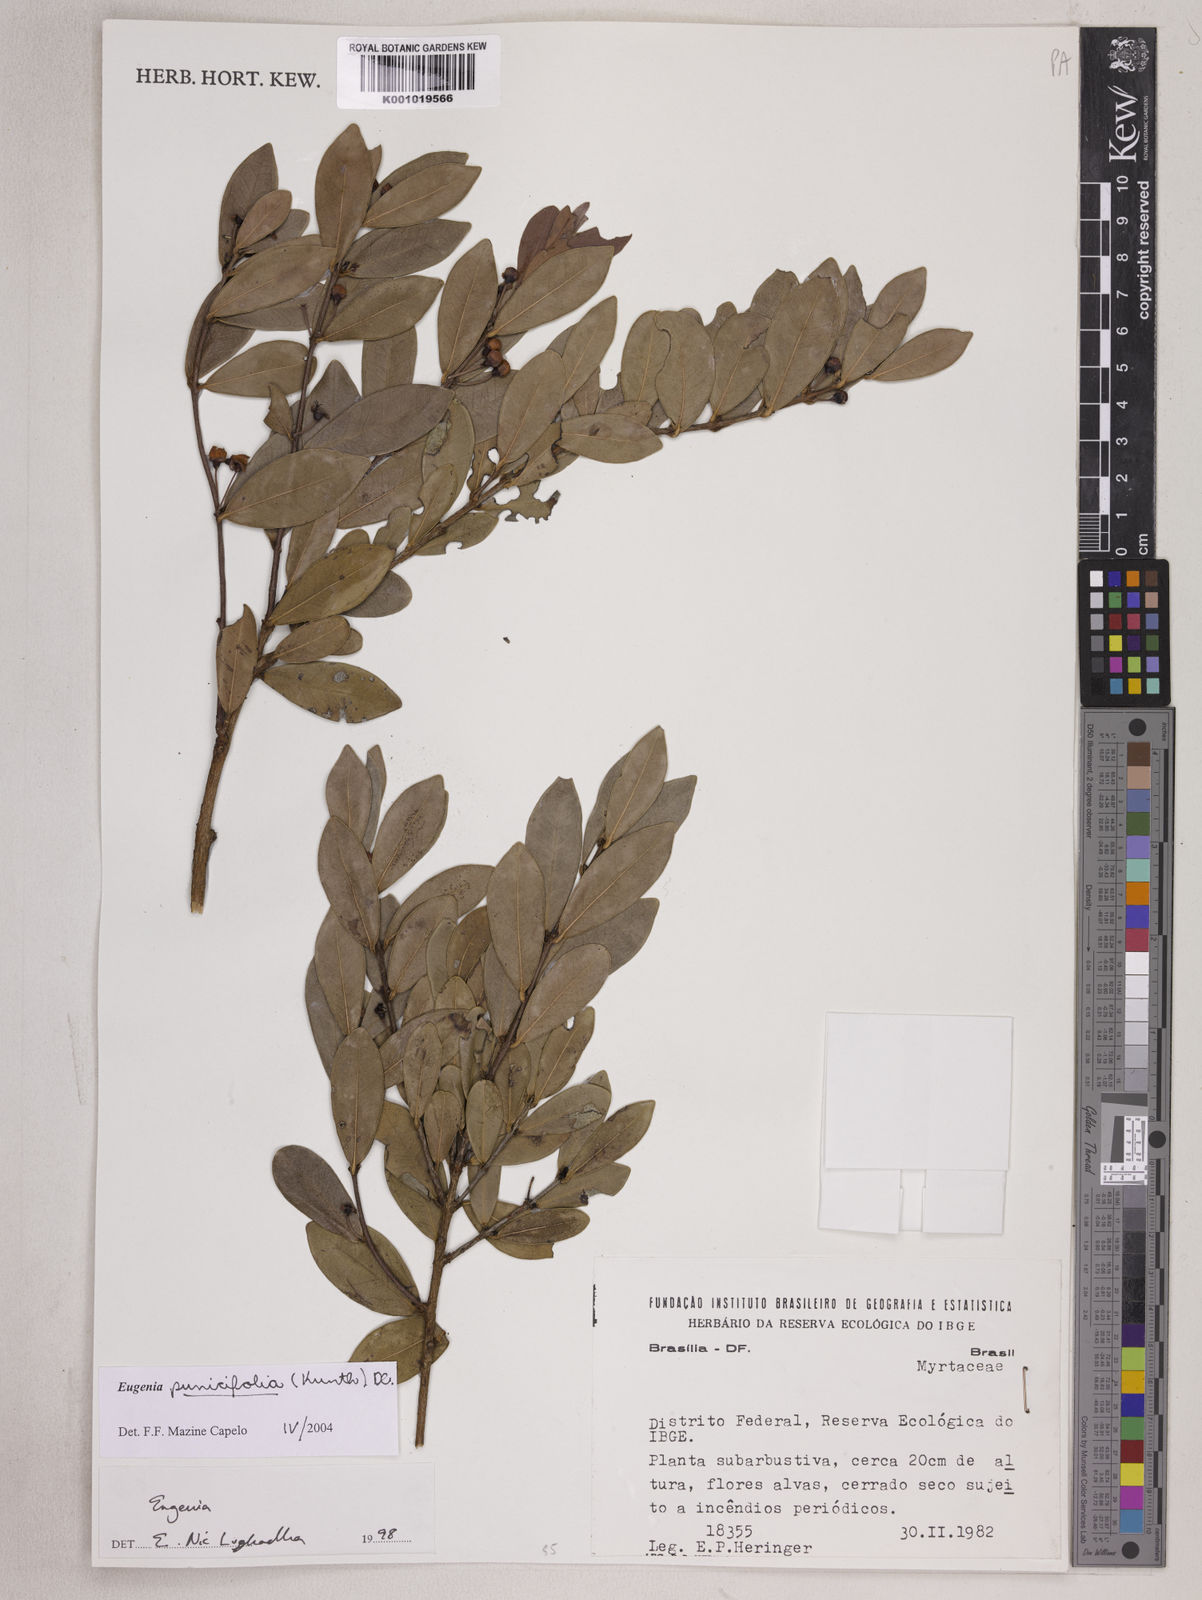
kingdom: Plantae
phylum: Tracheophyta
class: Magnoliopsida
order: Myrtales
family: Myrtaceae
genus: Eugenia
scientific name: Eugenia punicifolia
